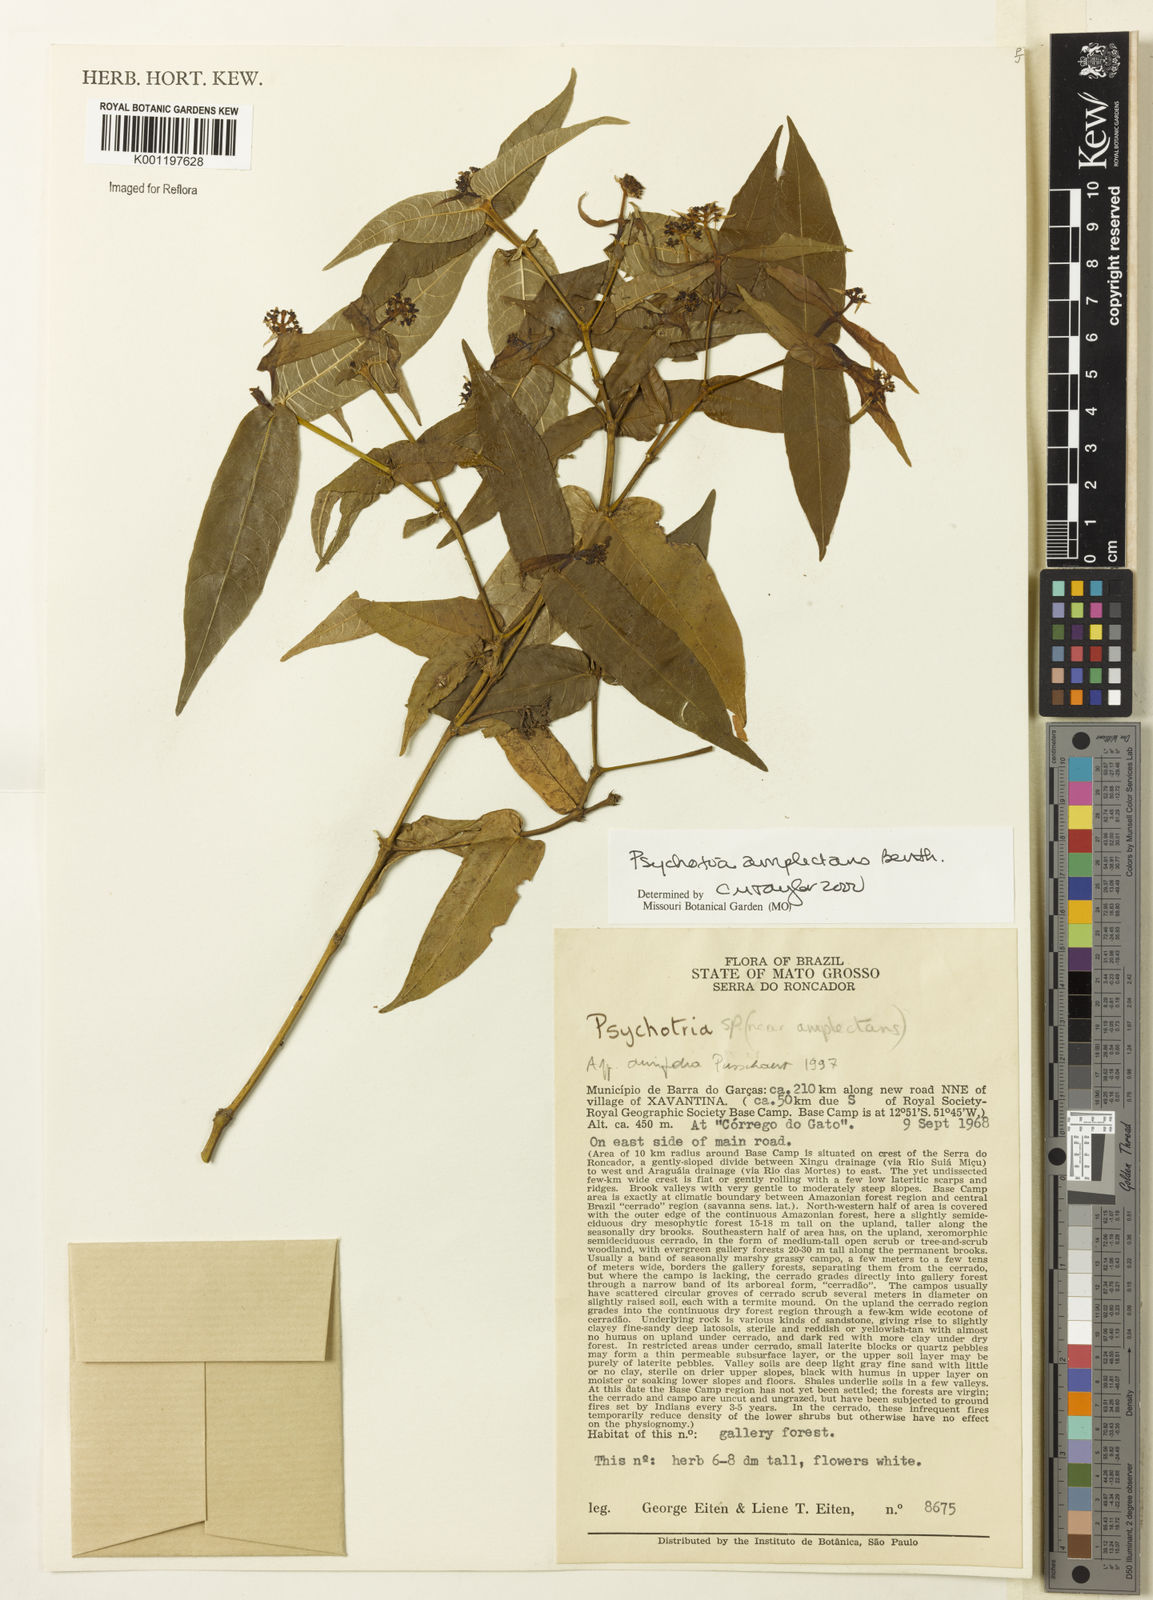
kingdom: Plantae
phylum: Tracheophyta
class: Magnoliopsida
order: Gentianales
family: Rubiaceae
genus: Psychotria
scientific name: Psychotria
